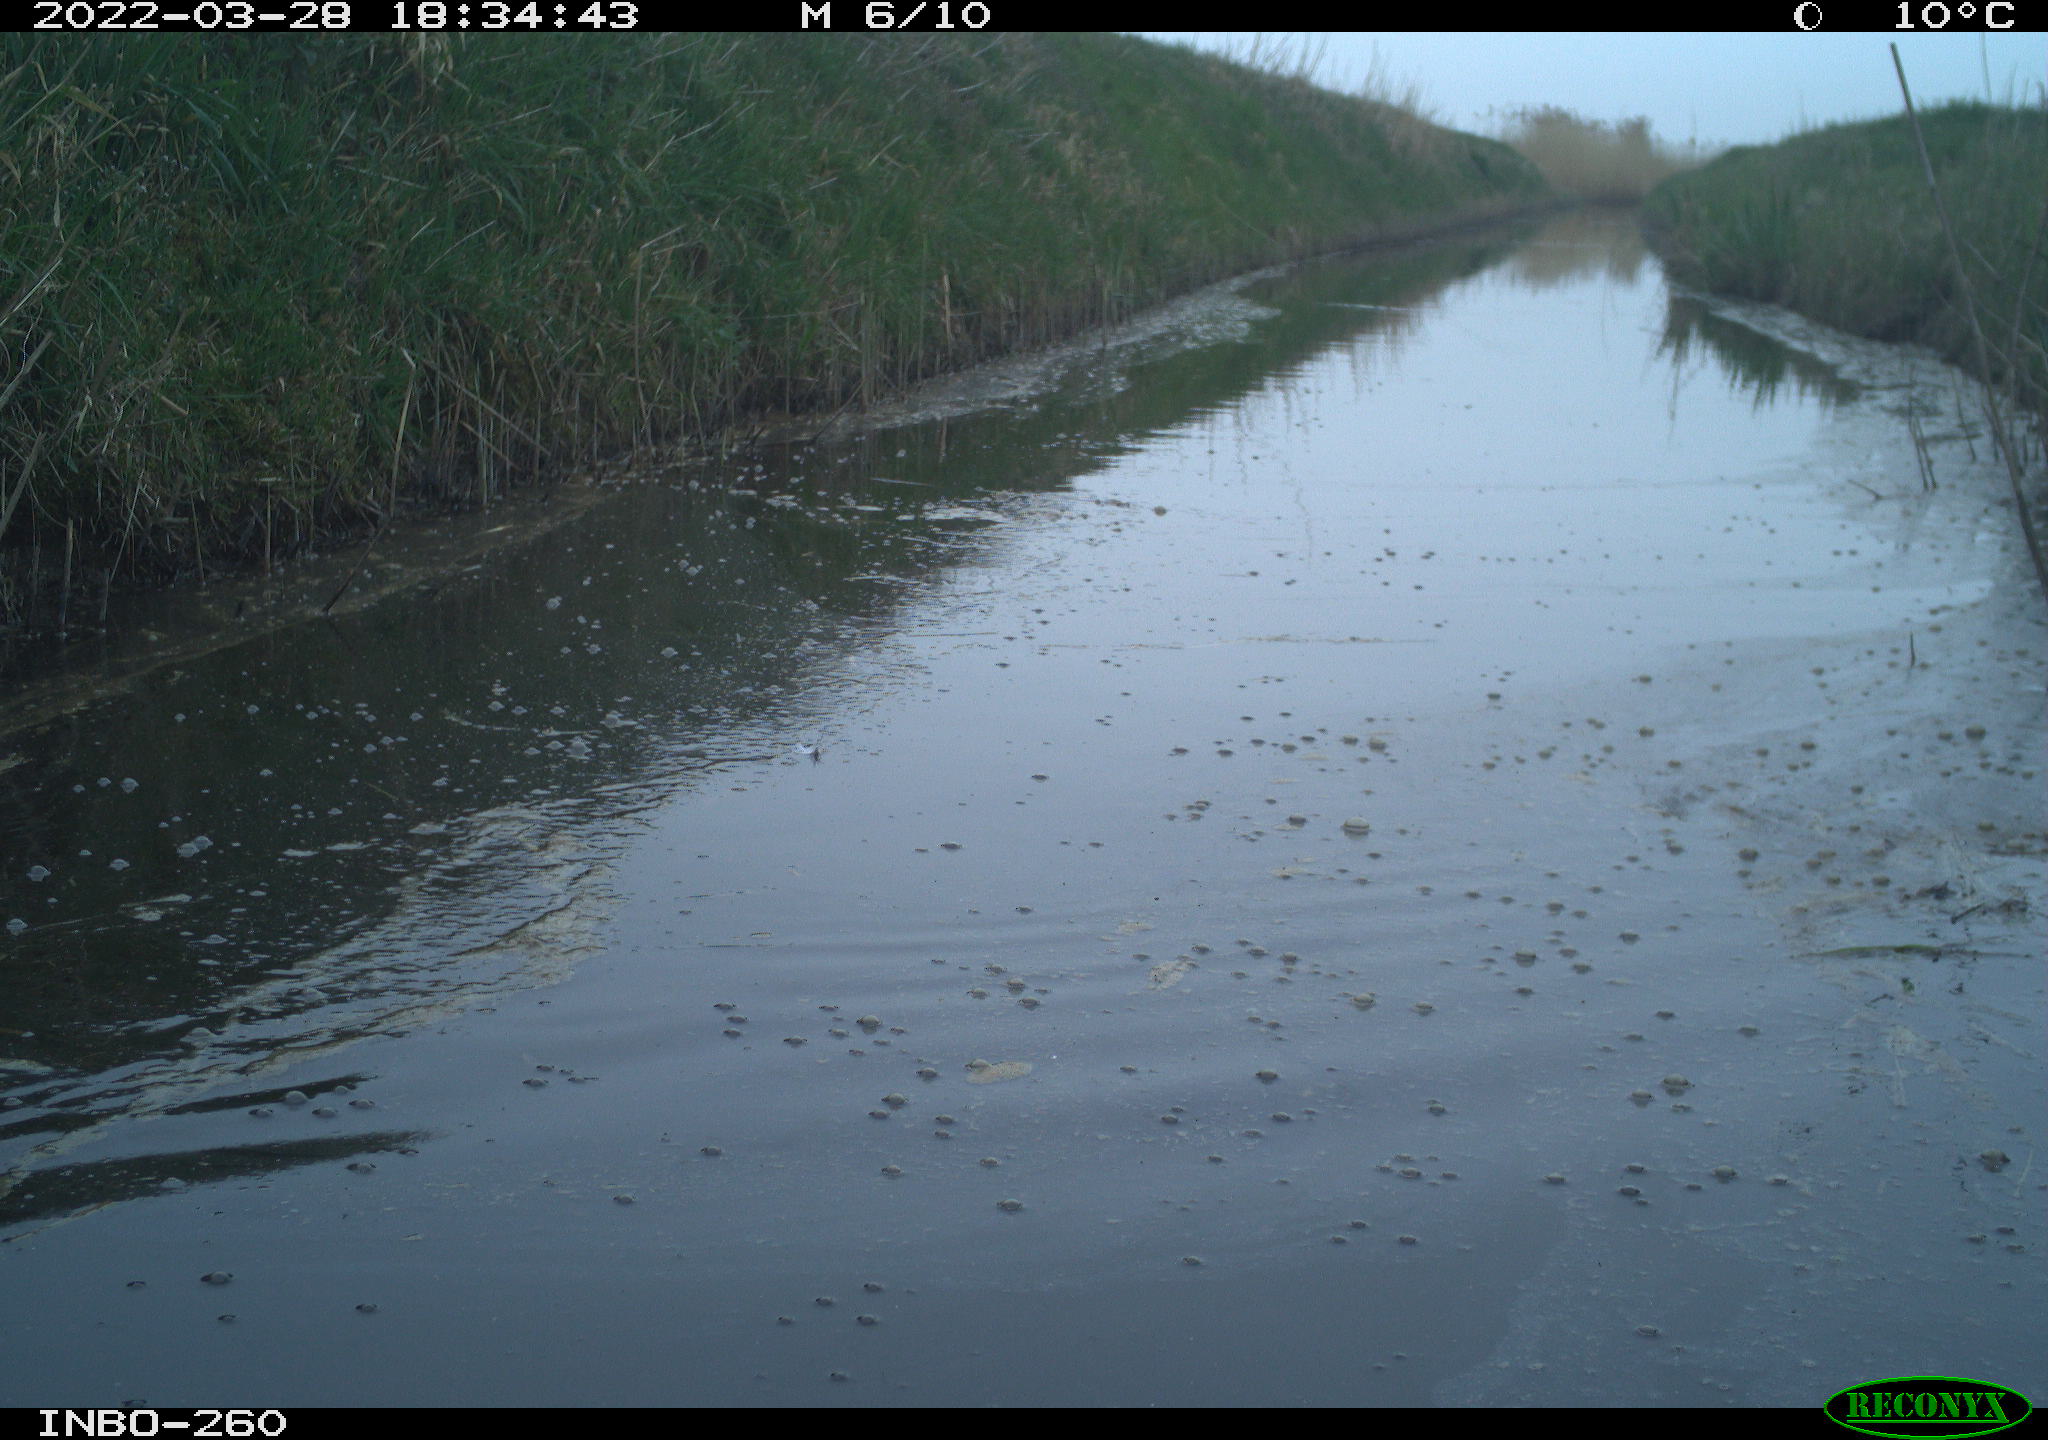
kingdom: Animalia
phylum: Chordata
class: Aves
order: Gruiformes
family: Rallidae
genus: Fulica
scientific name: Fulica atra
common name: Eurasian coot
